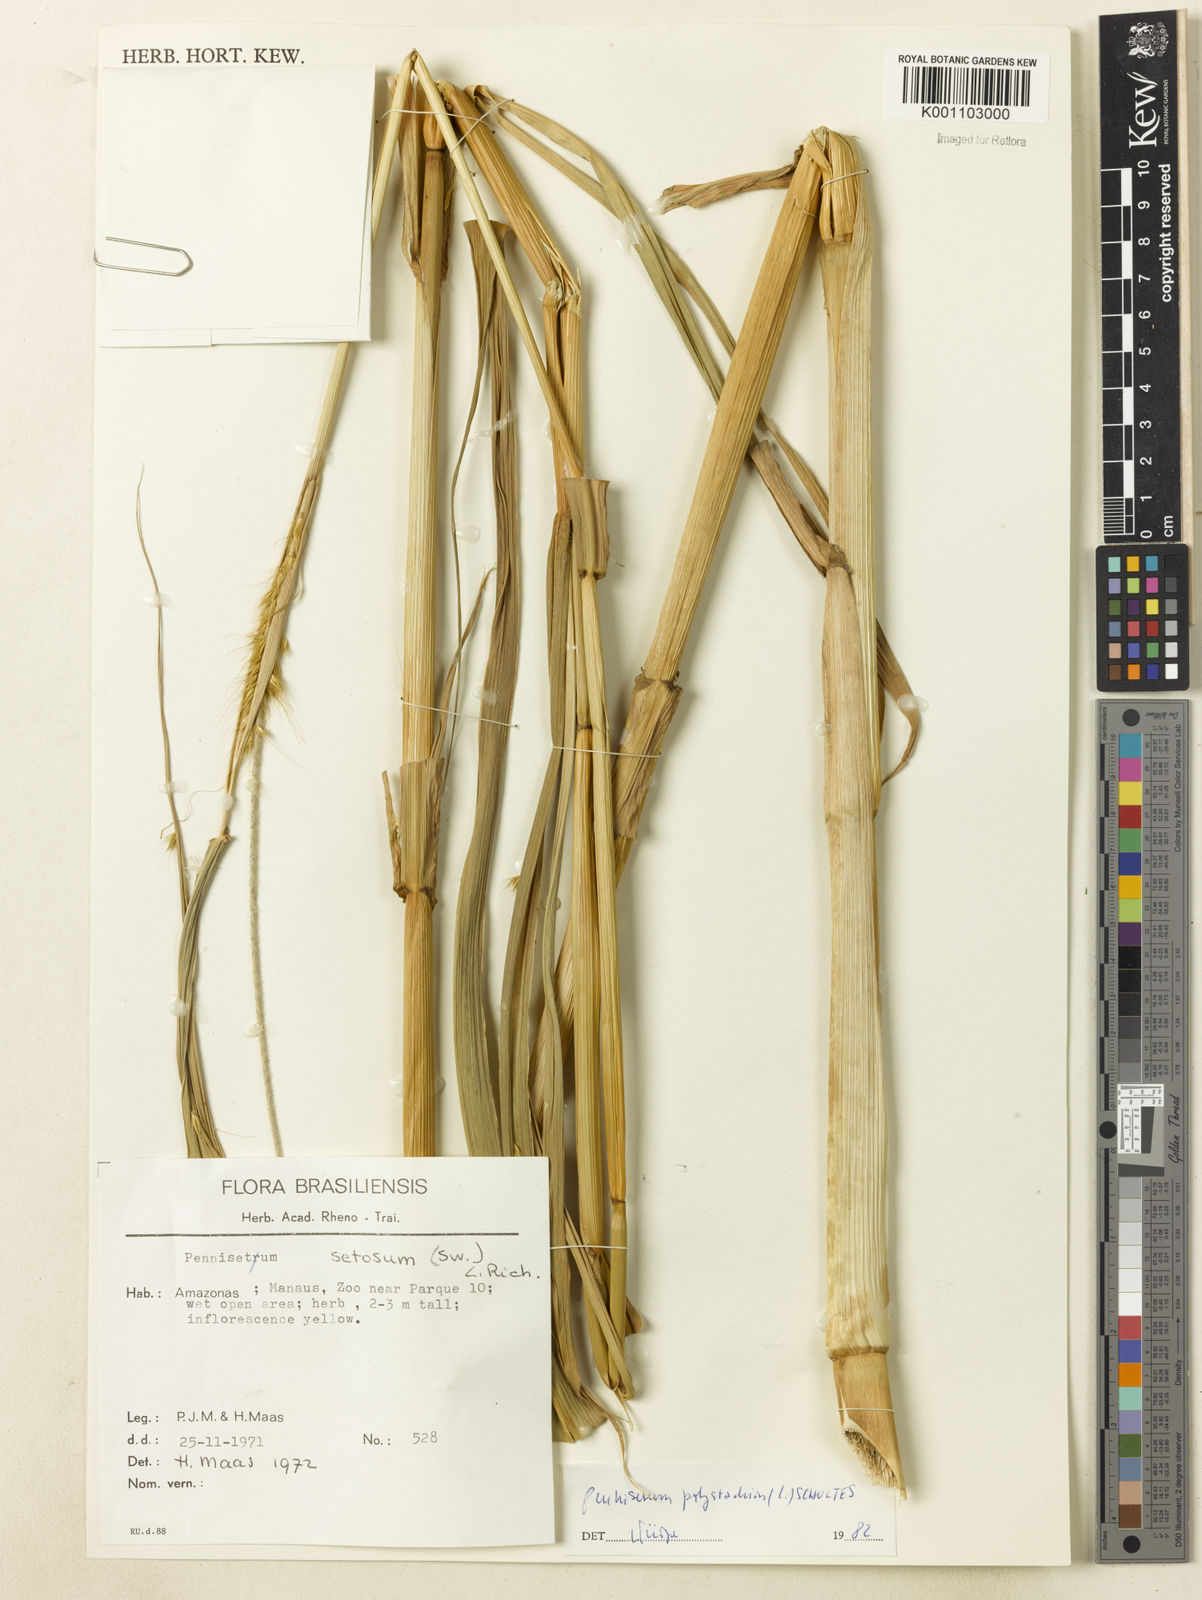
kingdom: Plantae
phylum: Tracheophyta
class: Liliopsida
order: Poales
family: Poaceae
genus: Setaria
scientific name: Setaria parviflora
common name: Knotroot bristle-grass
